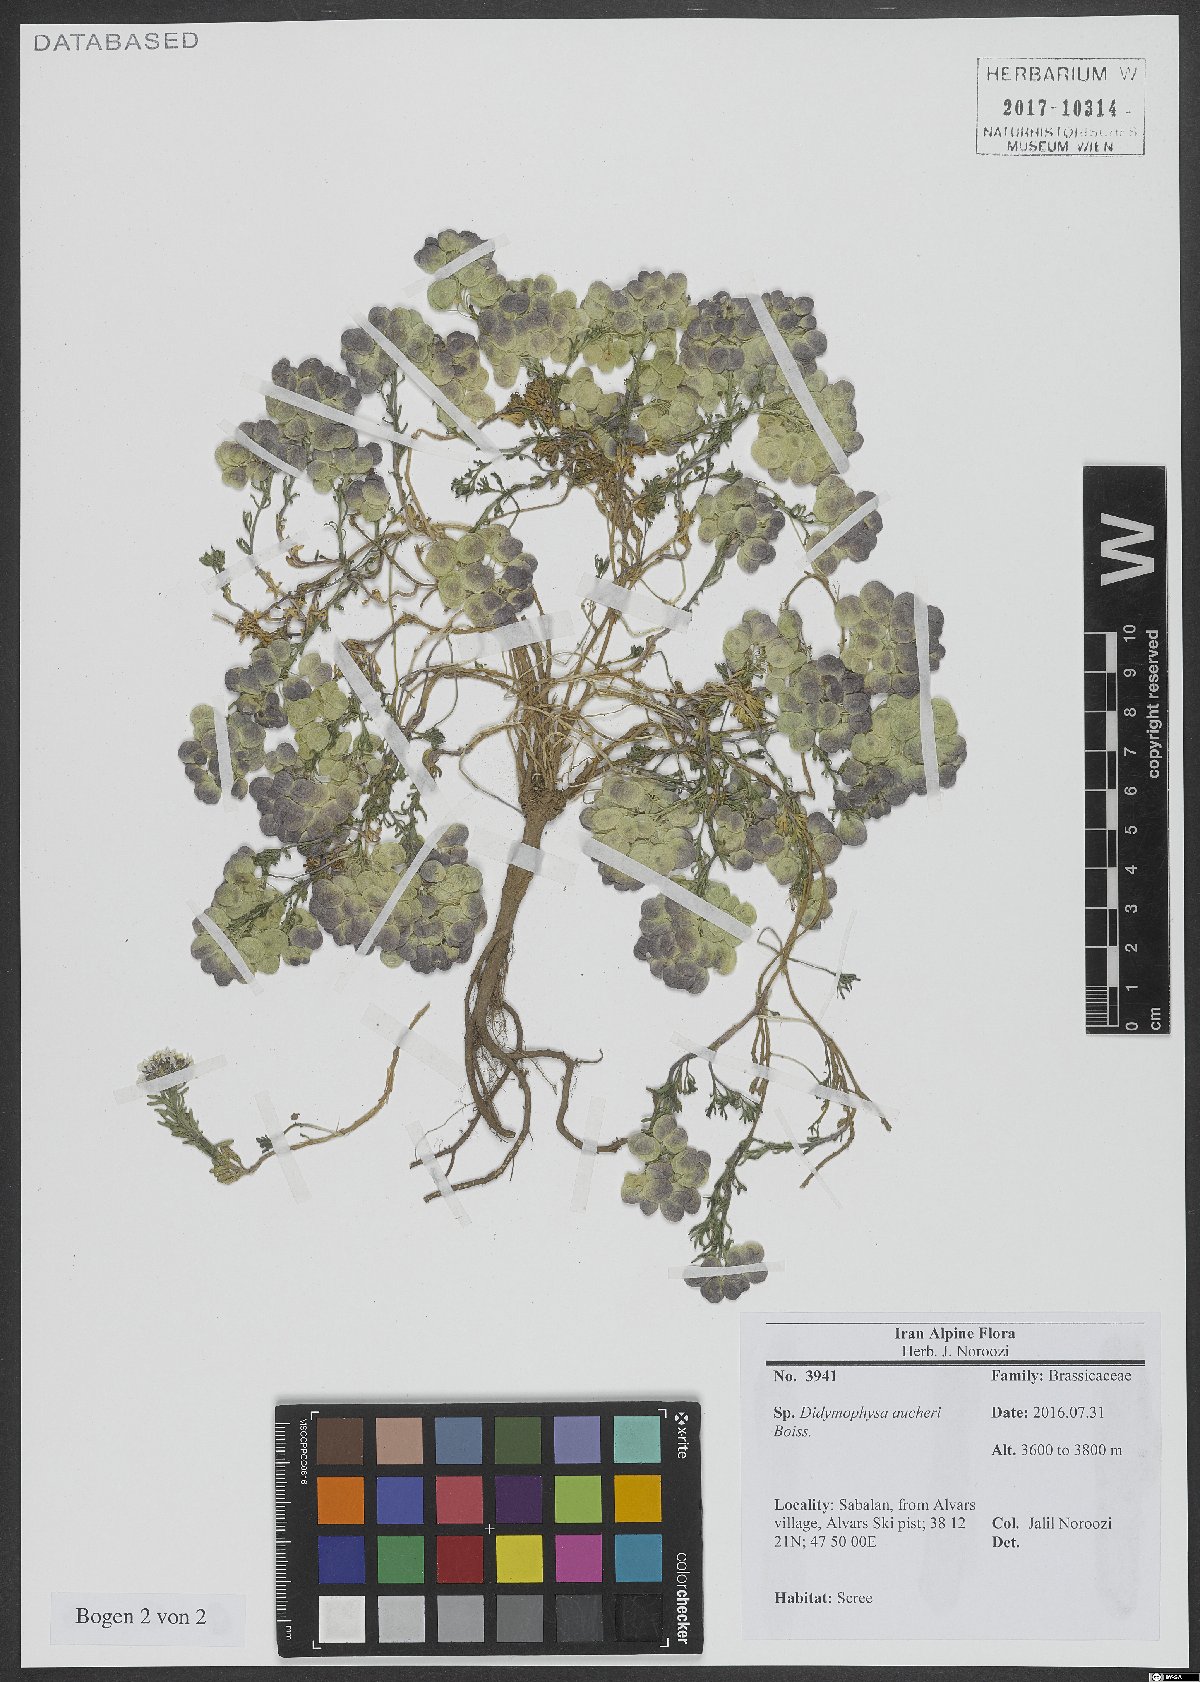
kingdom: Plantae
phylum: Tracheophyta
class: Magnoliopsida
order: Brassicales
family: Brassicaceae
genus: Didymophysa
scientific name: Didymophysa aucheri
